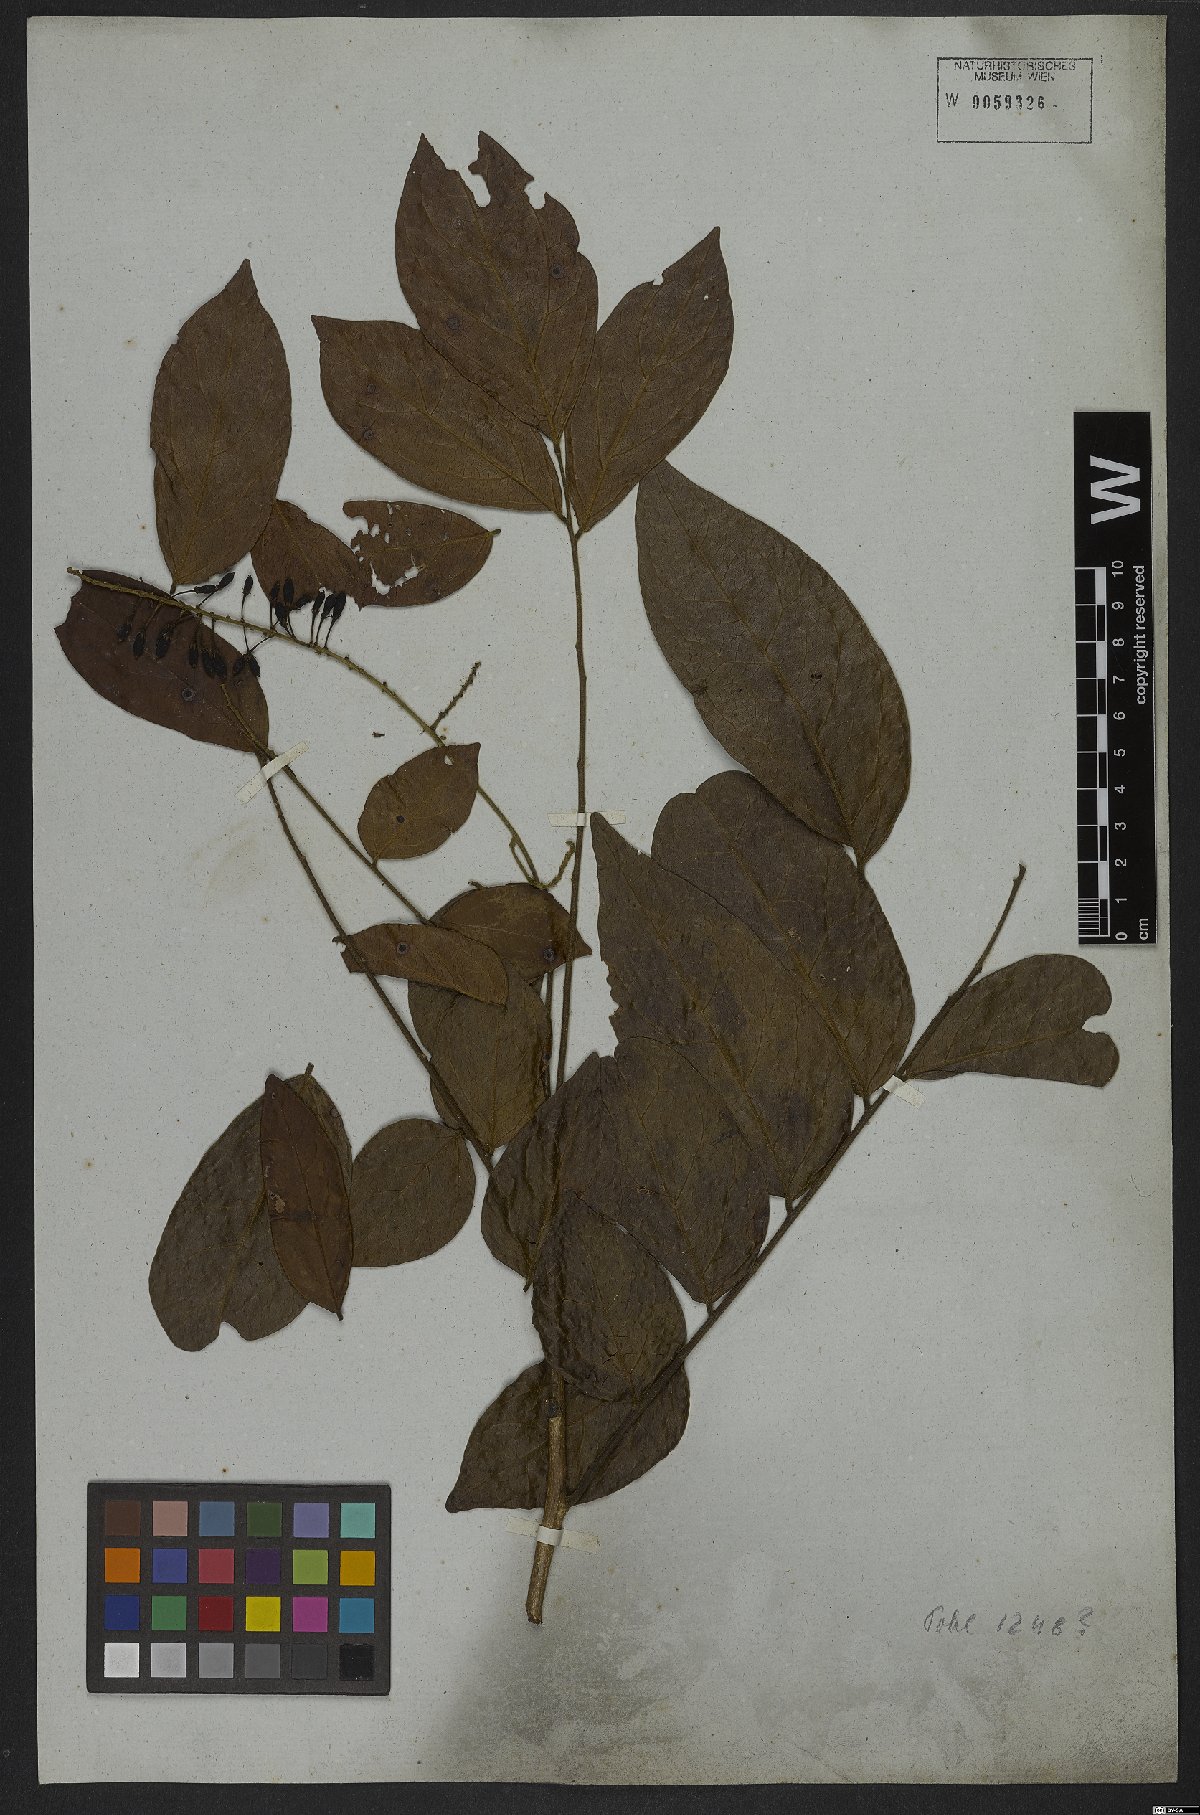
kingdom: Plantae
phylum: Tracheophyta
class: Magnoliopsida
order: Picramniales
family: Picramniaceae
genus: Picramnia
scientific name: Picramnia sellowii
